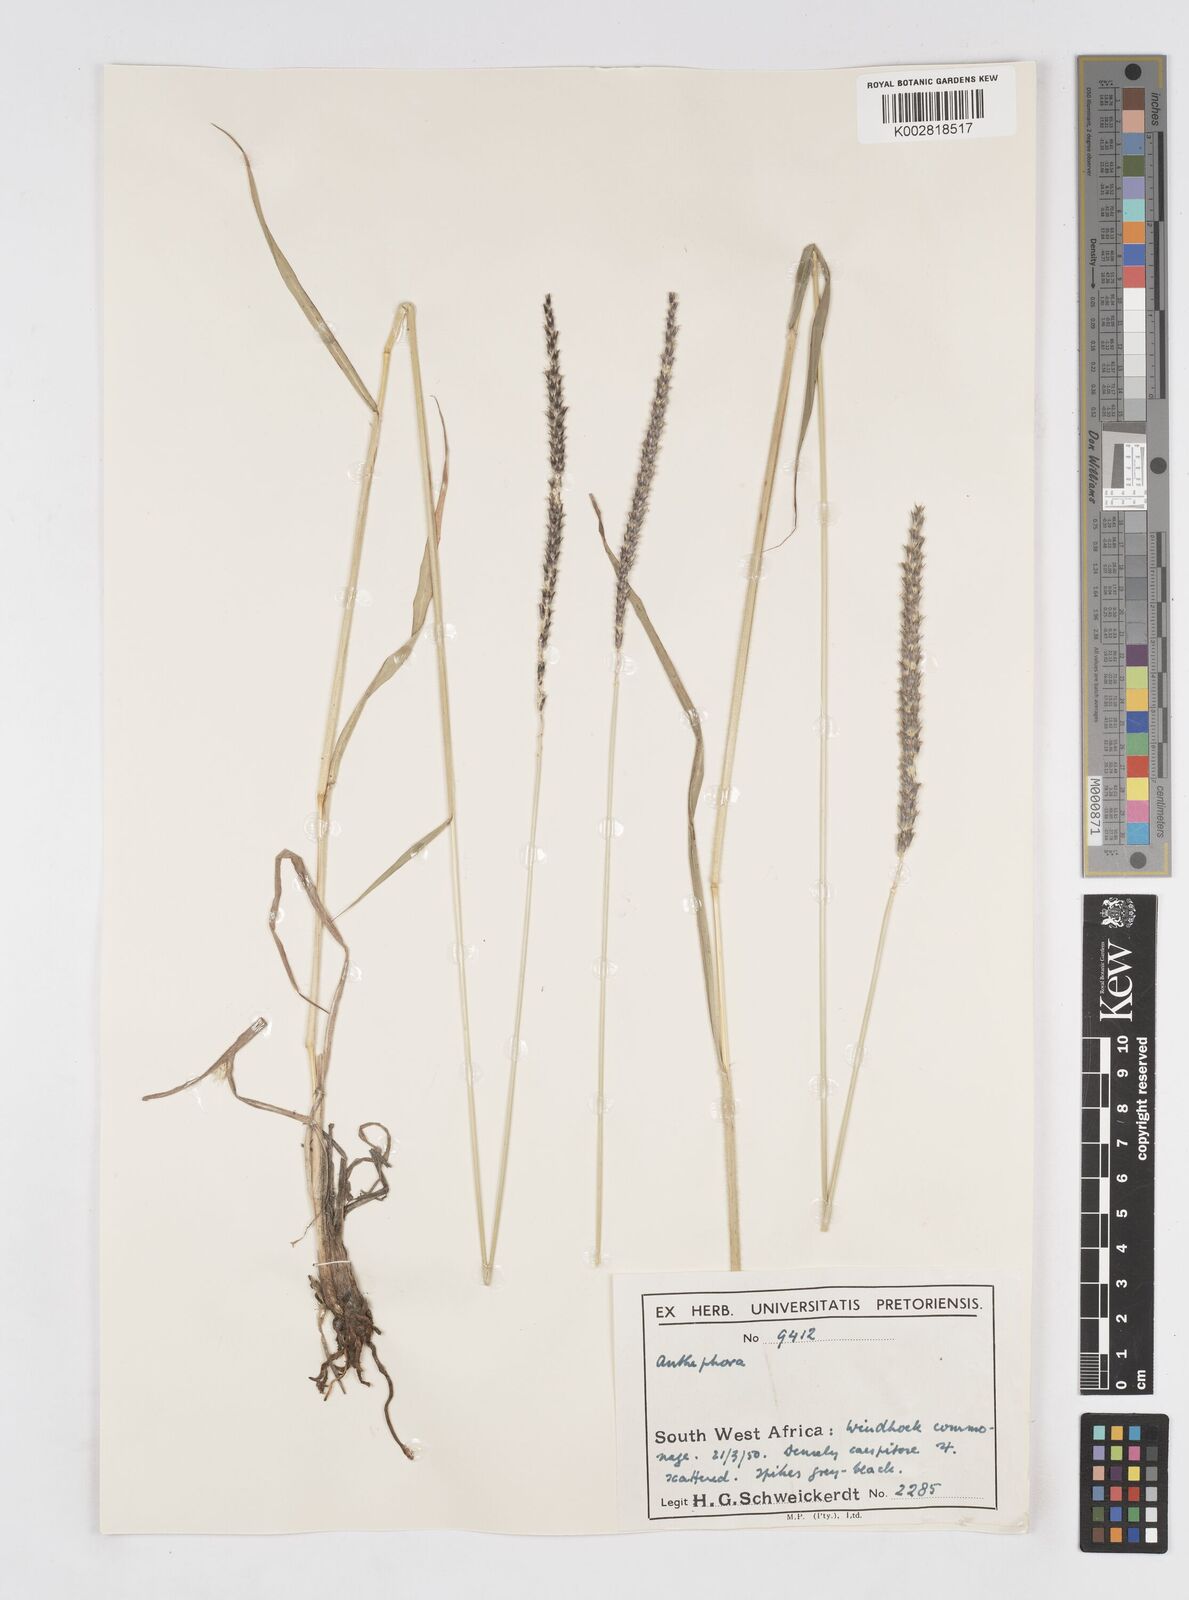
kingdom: Plantae
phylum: Tracheophyta
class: Liliopsida
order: Poales
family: Poaceae
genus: Anthephora
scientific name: Anthephora pubescens
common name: Wool grass
